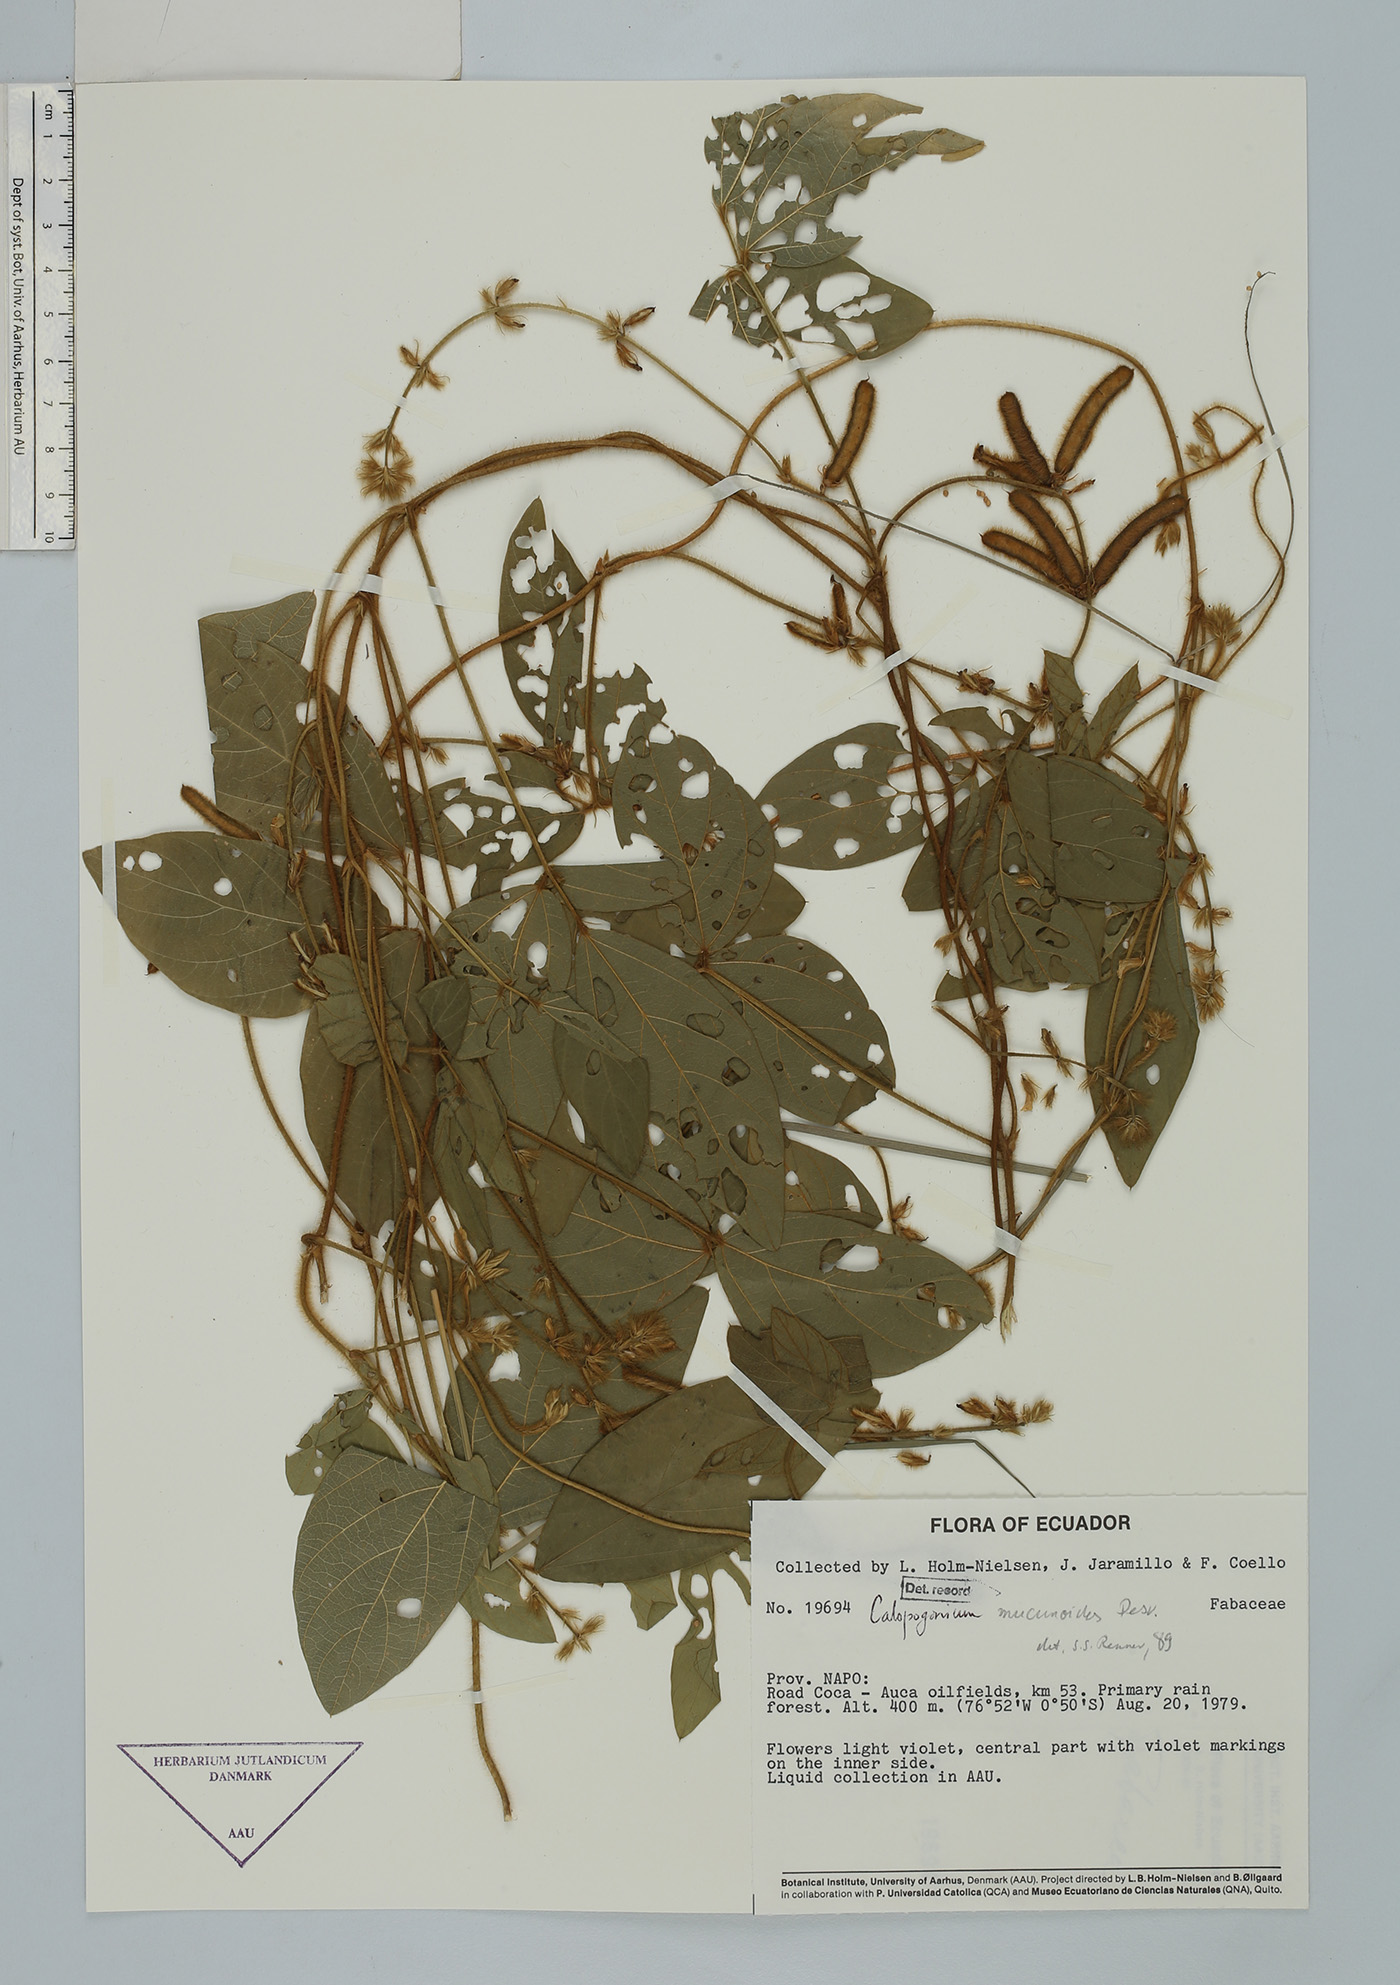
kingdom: Plantae
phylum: Tracheophyta
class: Magnoliopsida
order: Fabales
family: Fabaceae
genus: Calopogonium
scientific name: Calopogonium mucunoides
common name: Calopo
